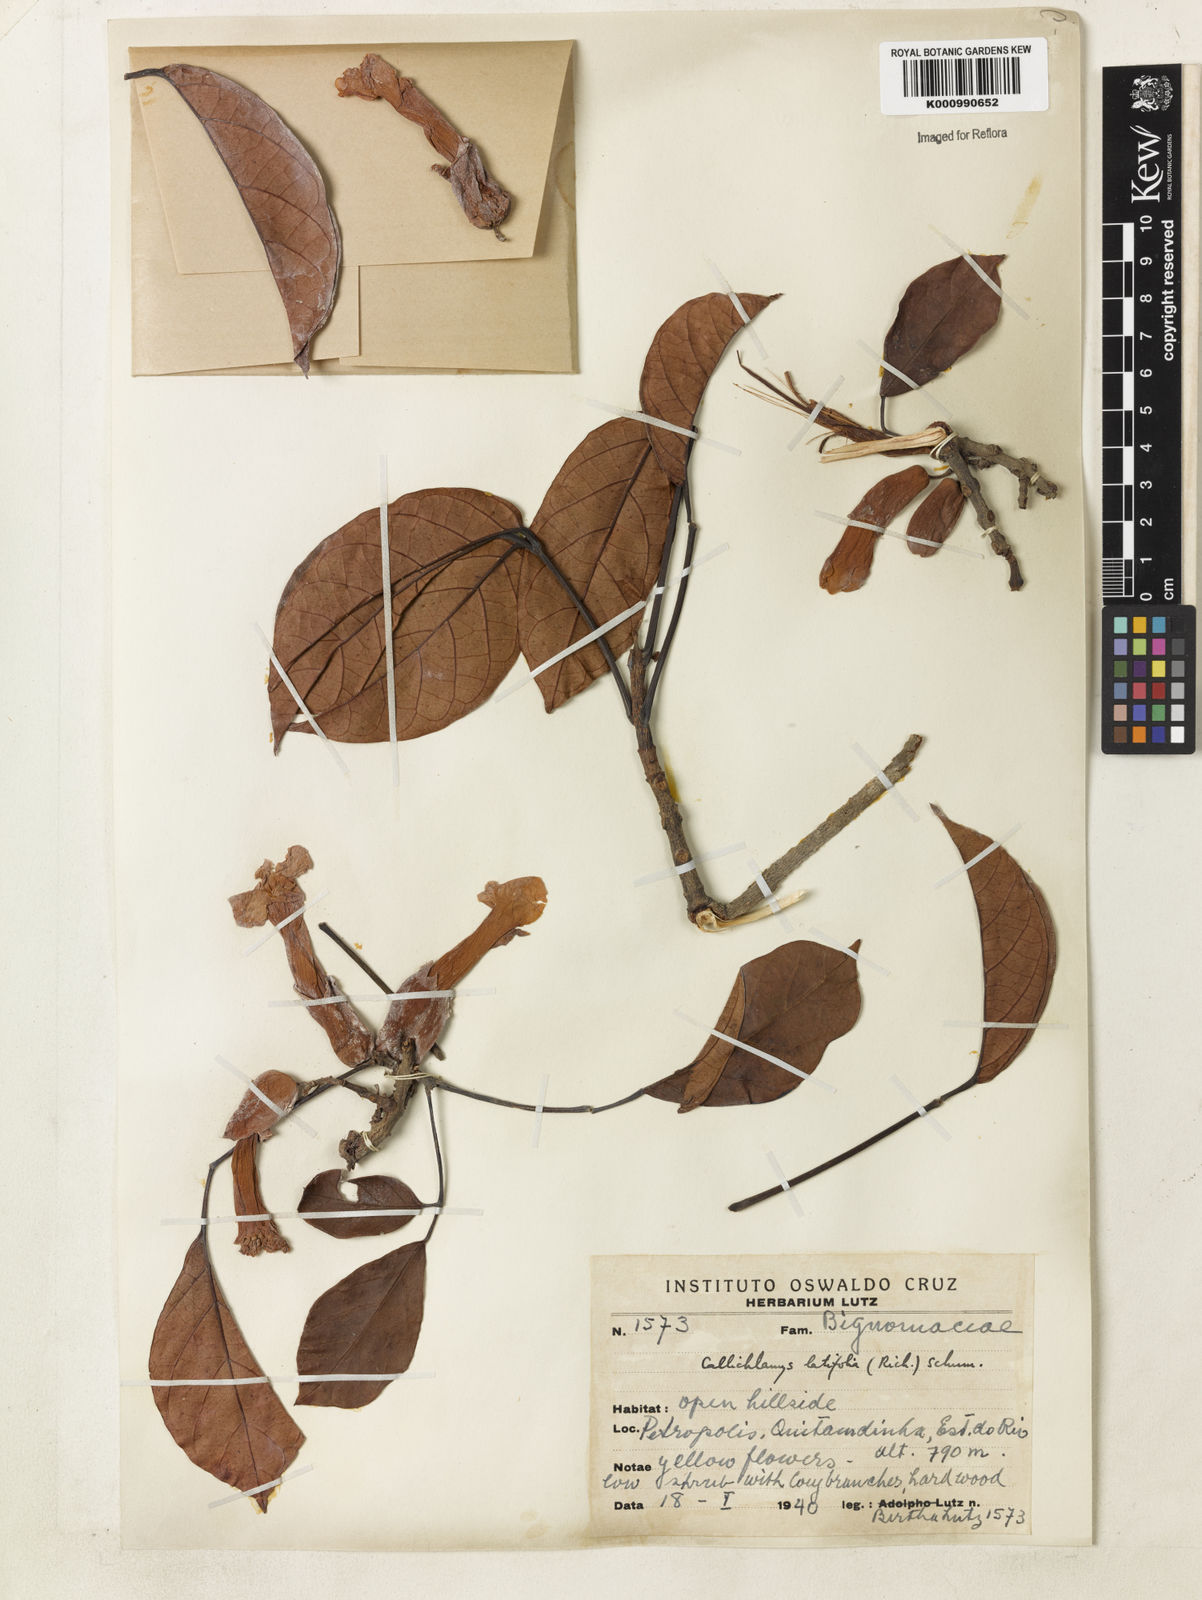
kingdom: Plantae
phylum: Tracheophyta
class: Magnoliopsida
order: Lamiales
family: Bignoniaceae
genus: Callichlamys
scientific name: Callichlamys latifolia
